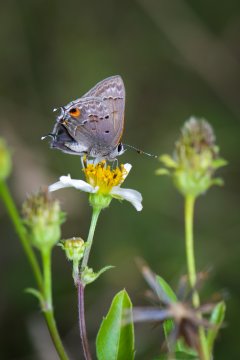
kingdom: Animalia
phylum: Arthropoda
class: Insecta
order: Lepidoptera
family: Lycaenidae
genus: Callicista
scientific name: Callicista columella
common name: Mallow Scrub-Hairstreak
